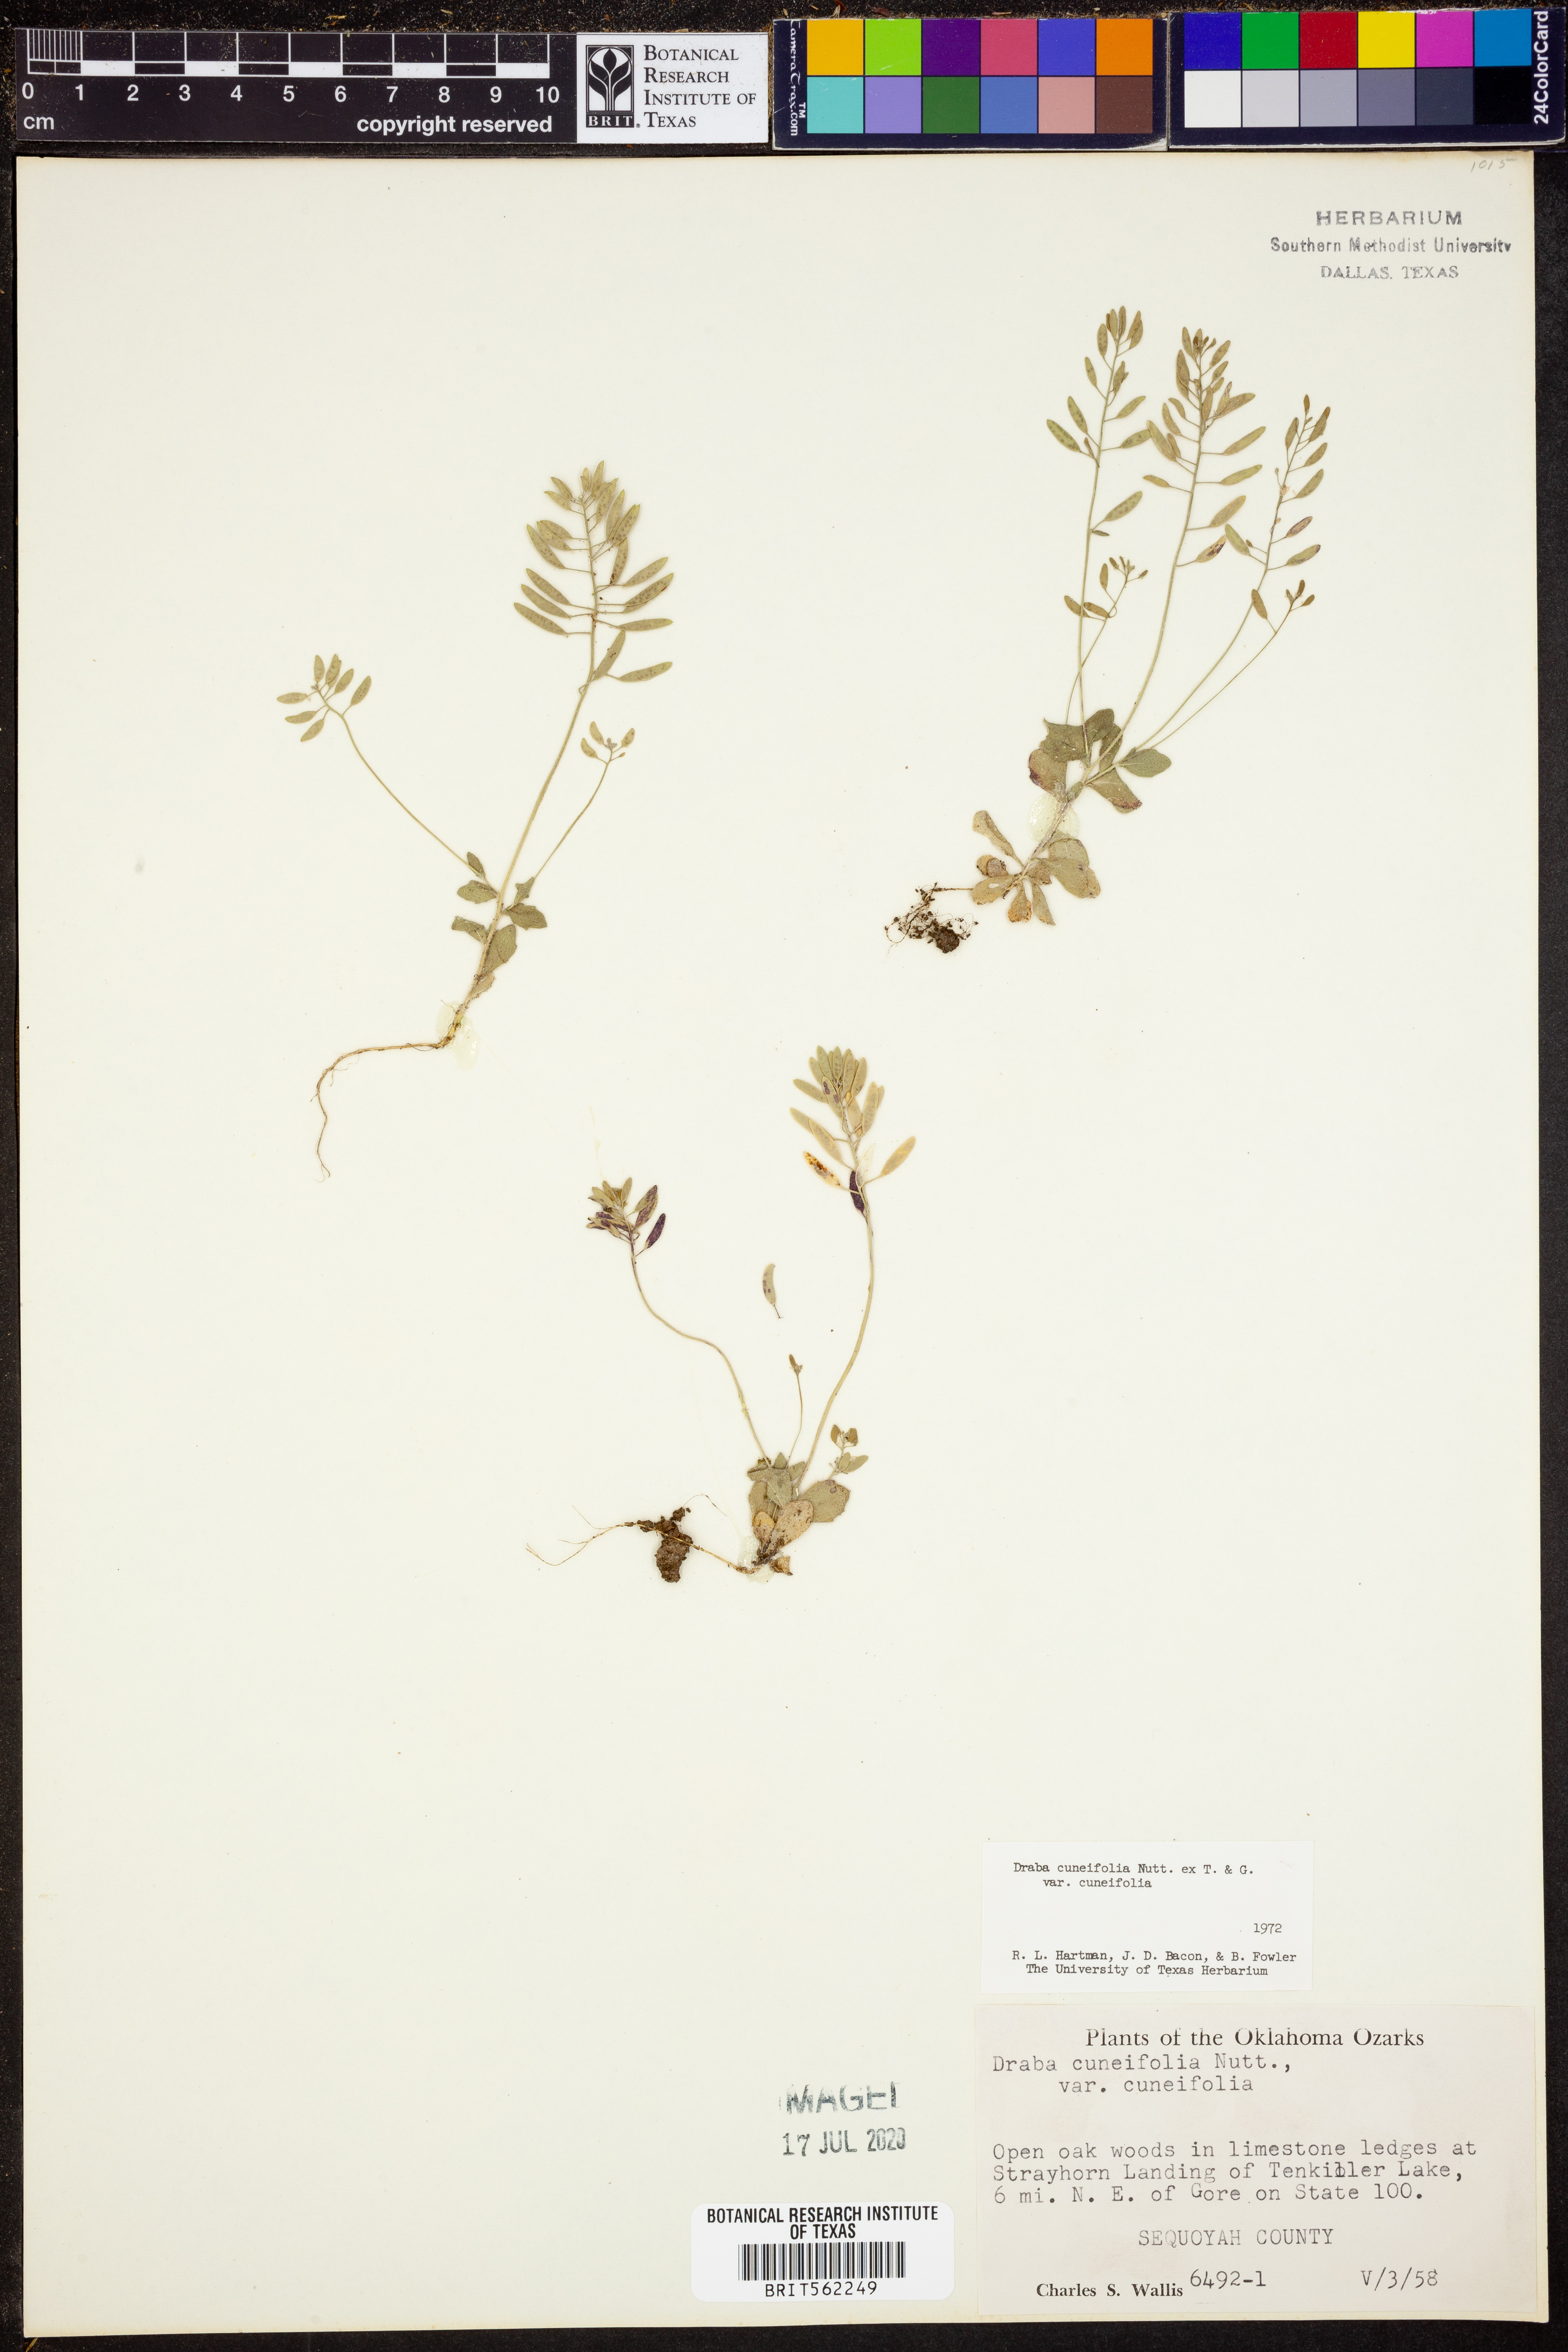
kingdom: Plantae
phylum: Tracheophyta
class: Magnoliopsida
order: Brassicales
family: Brassicaceae
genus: Tomostima
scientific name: Tomostima cuneifolia
